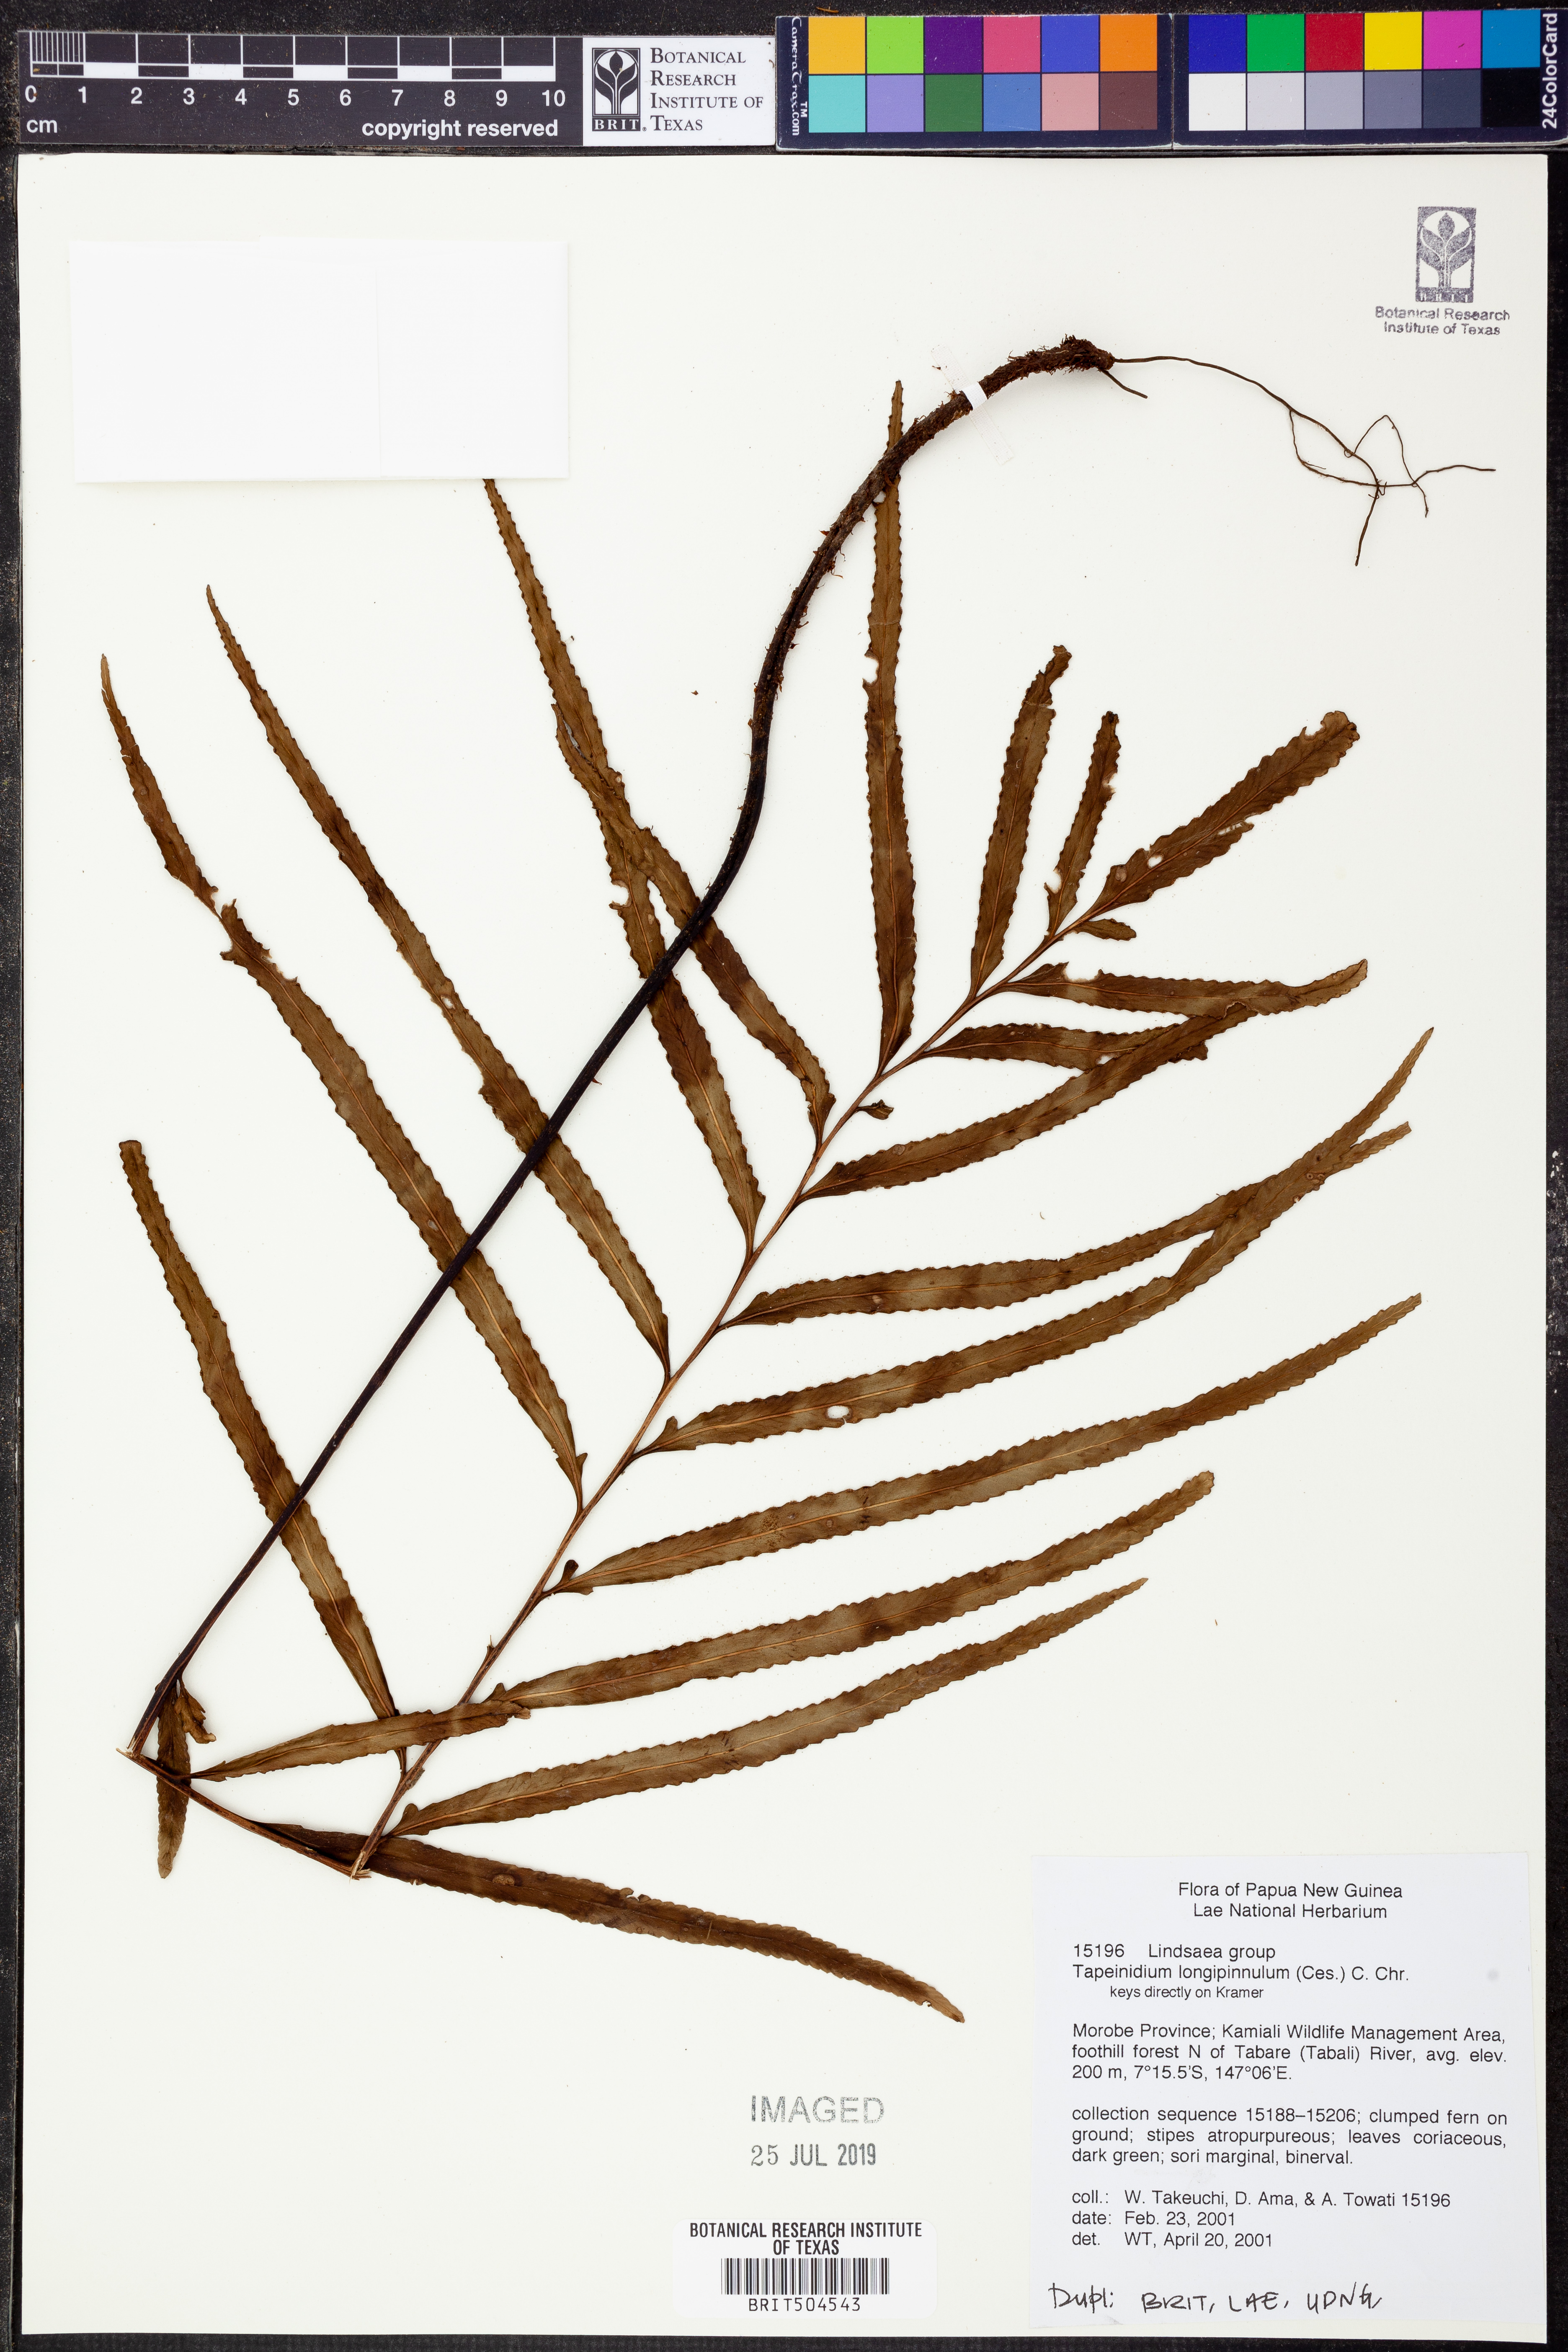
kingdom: Plantae
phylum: Tracheophyta
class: Polypodiopsida
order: Polypodiales
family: Lindsaeaceae
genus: Tapeinidium
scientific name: Tapeinidium longipinnulum
